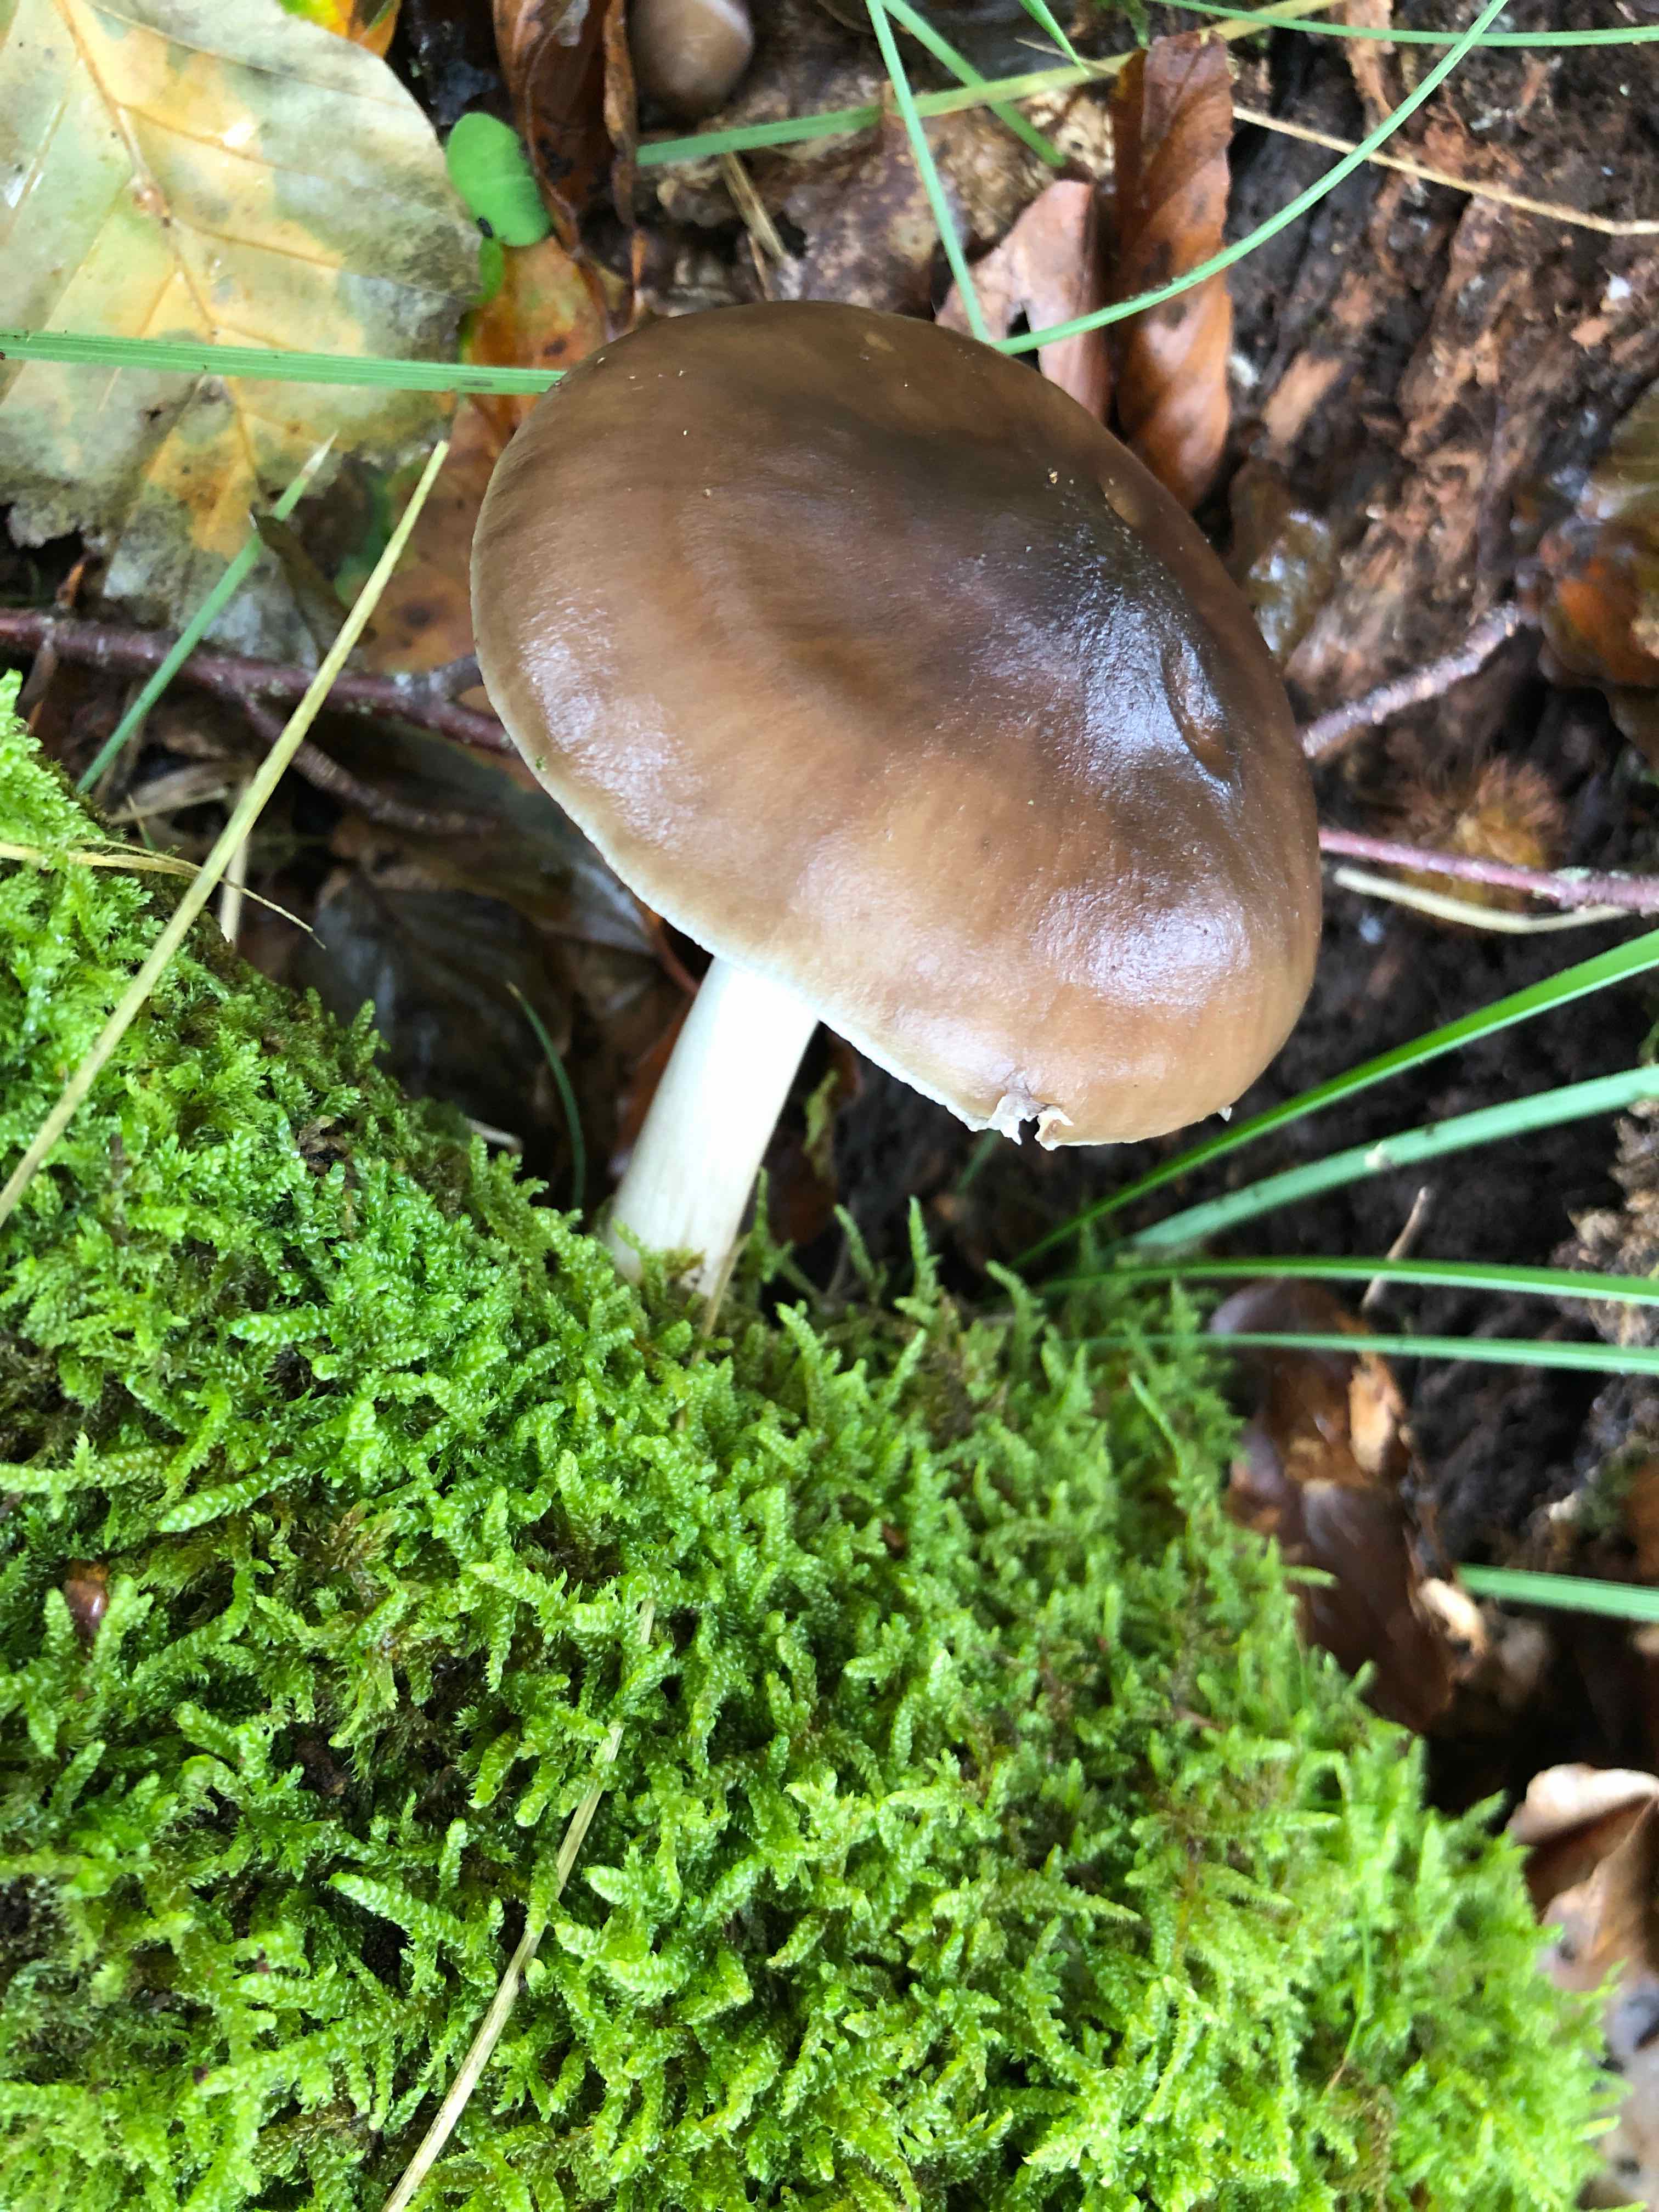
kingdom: Fungi
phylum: Basidiomycota
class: Agaricomycetes
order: Agaricales
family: Pluteaceae
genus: Pluteus
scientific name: Pluteus cervinus
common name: sodfarvet skærmhat
